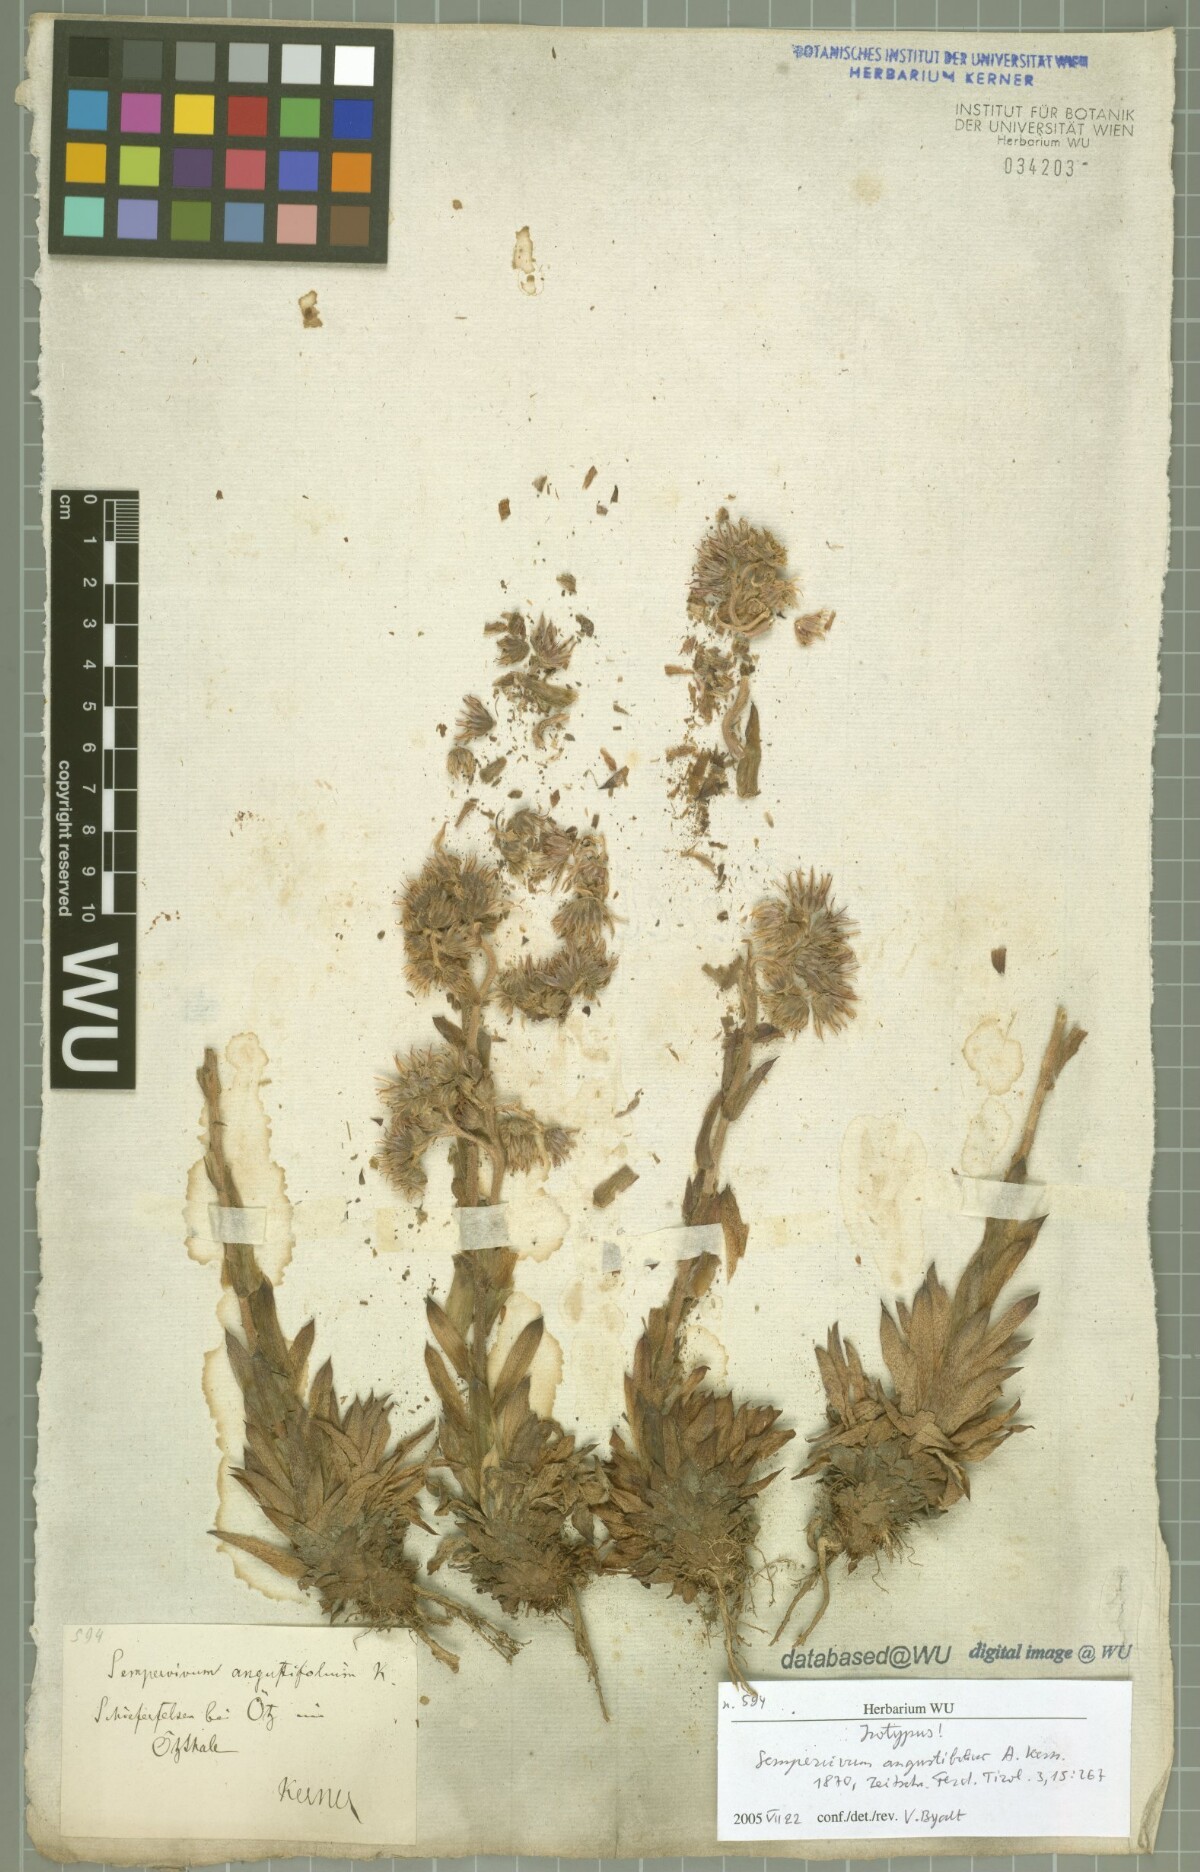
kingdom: Plantae
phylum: Tracheophyta
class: Magnoliopsida
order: Saxifragales
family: Crassulaceae
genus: Sempervivum
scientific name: Sempervivum alatum
